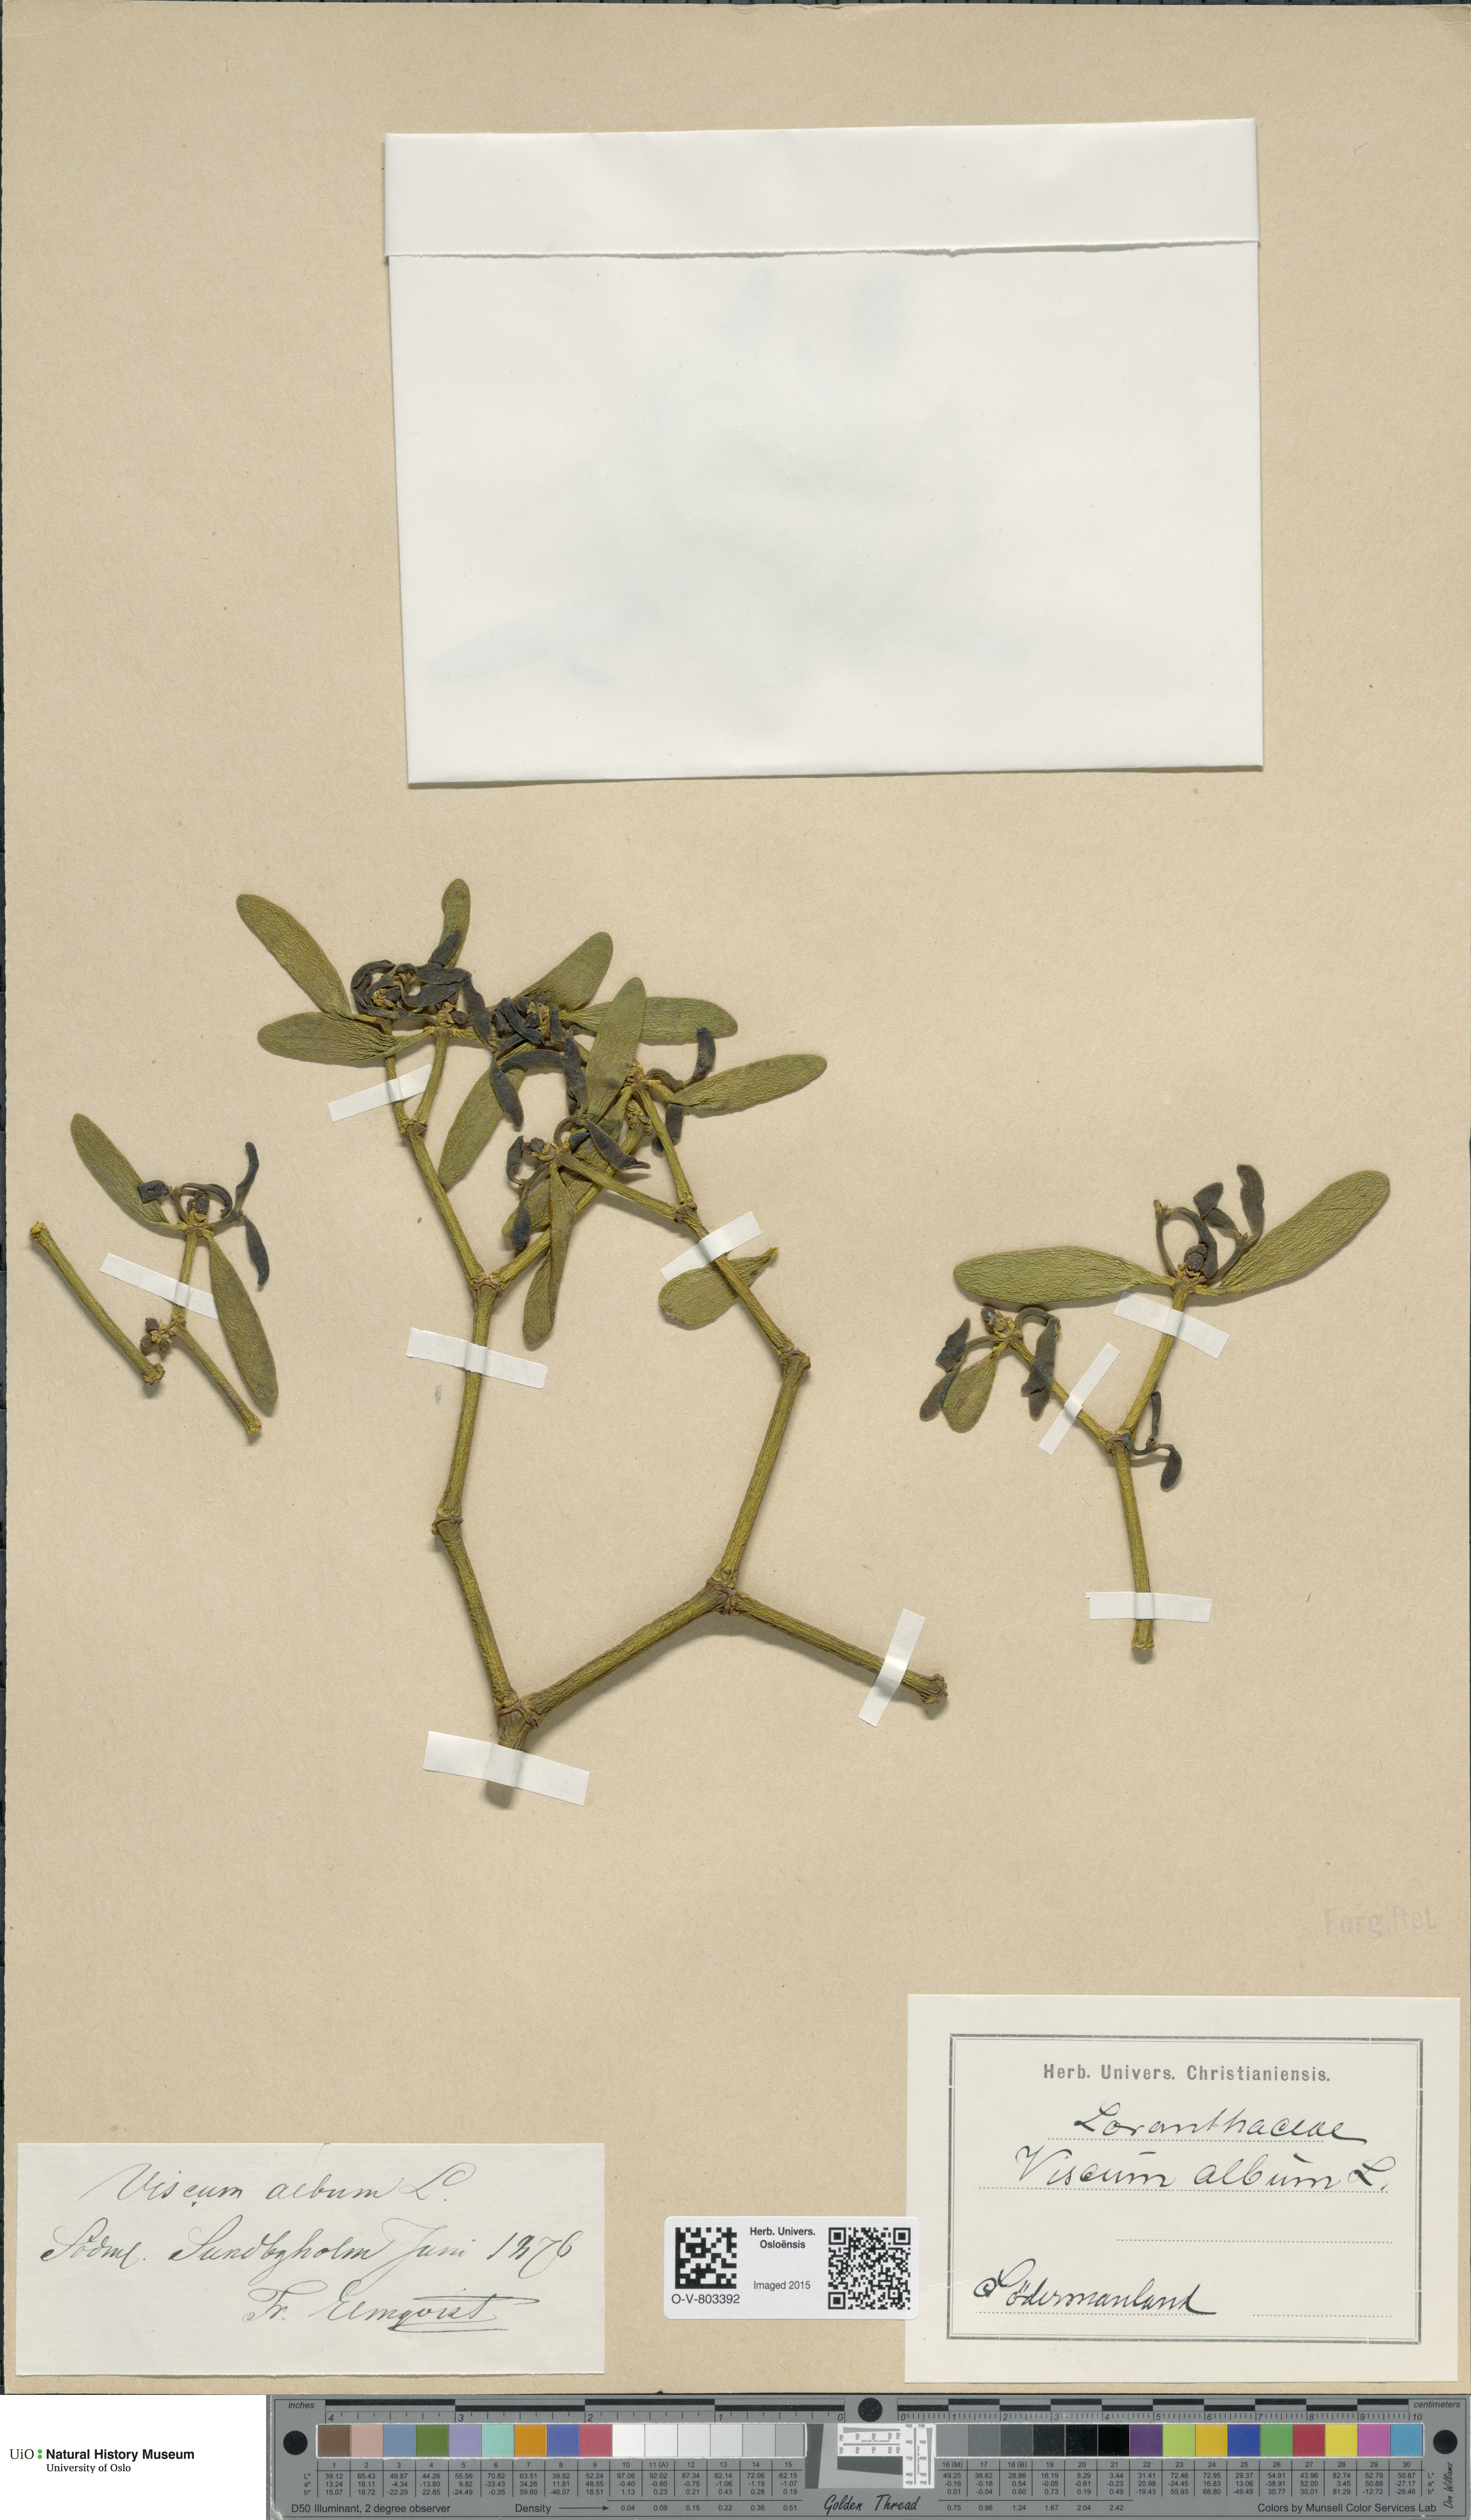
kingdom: Plantae
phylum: Tracheophyta
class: Magnoliopsida
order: Santalales
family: Viscaceae
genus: Viscum
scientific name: Viscum album
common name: Mistletoe
